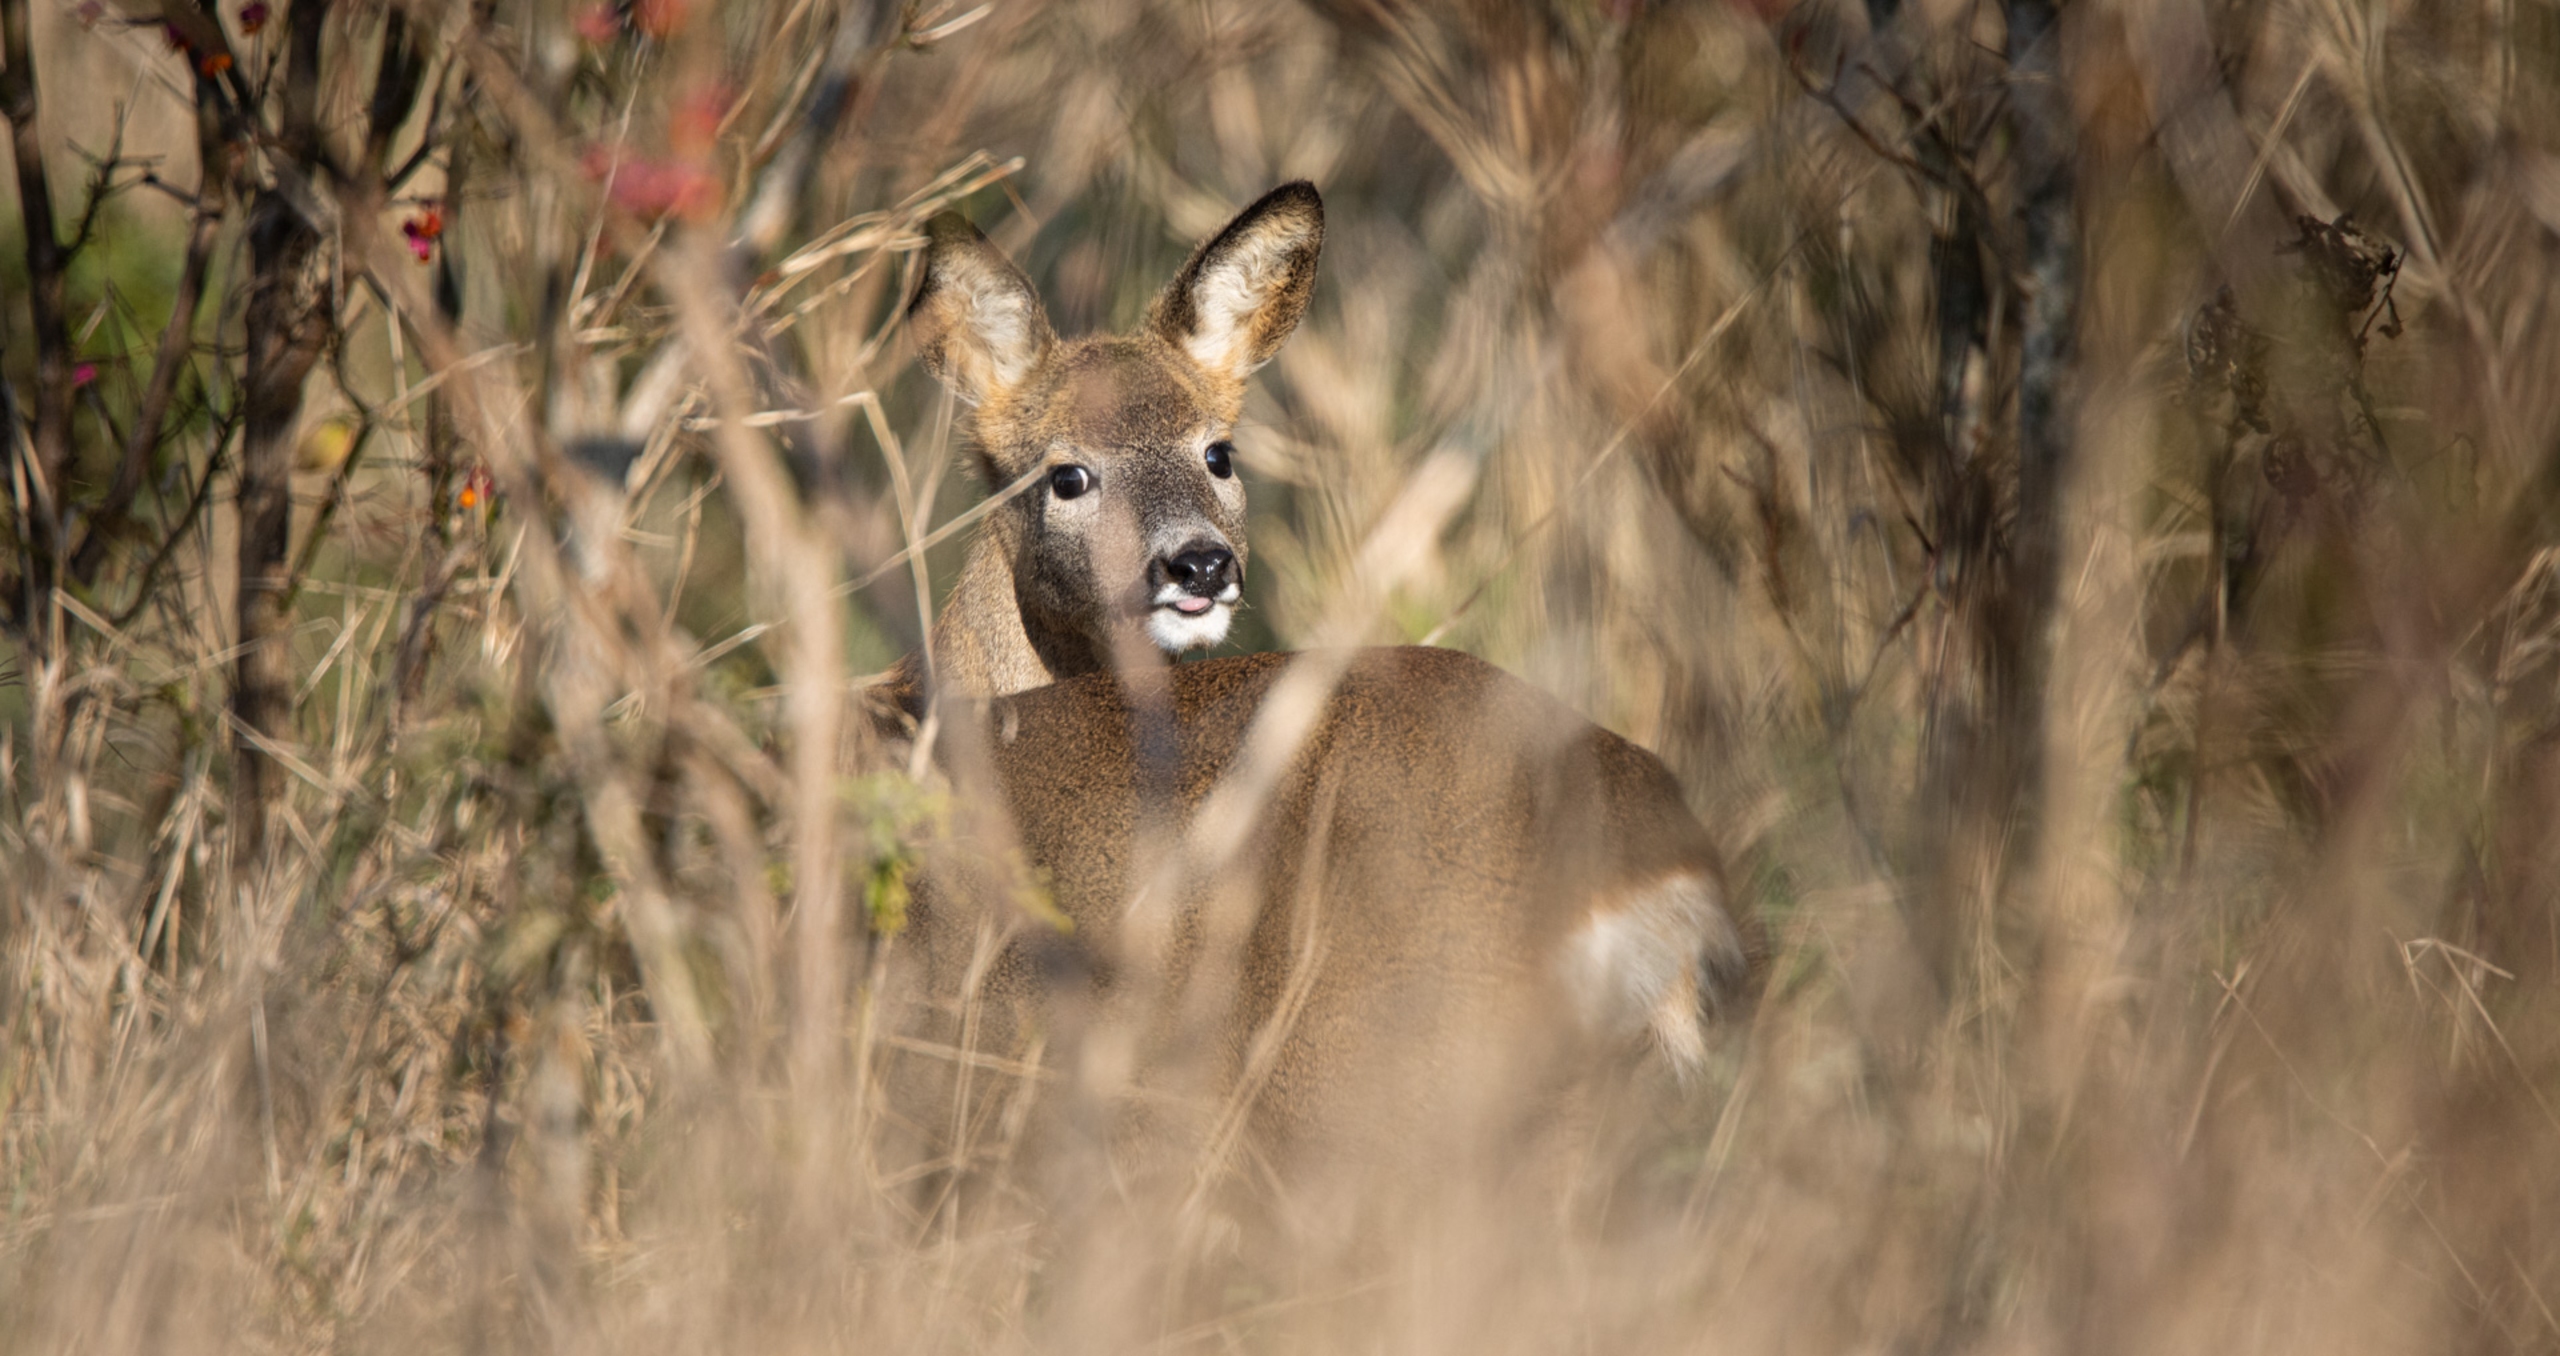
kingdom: Animalia
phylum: Chordata
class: Mammalia
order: Artiodactyla
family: Cervidae
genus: Capreolus
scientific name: Capreolus capreolus
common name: Rådyr
